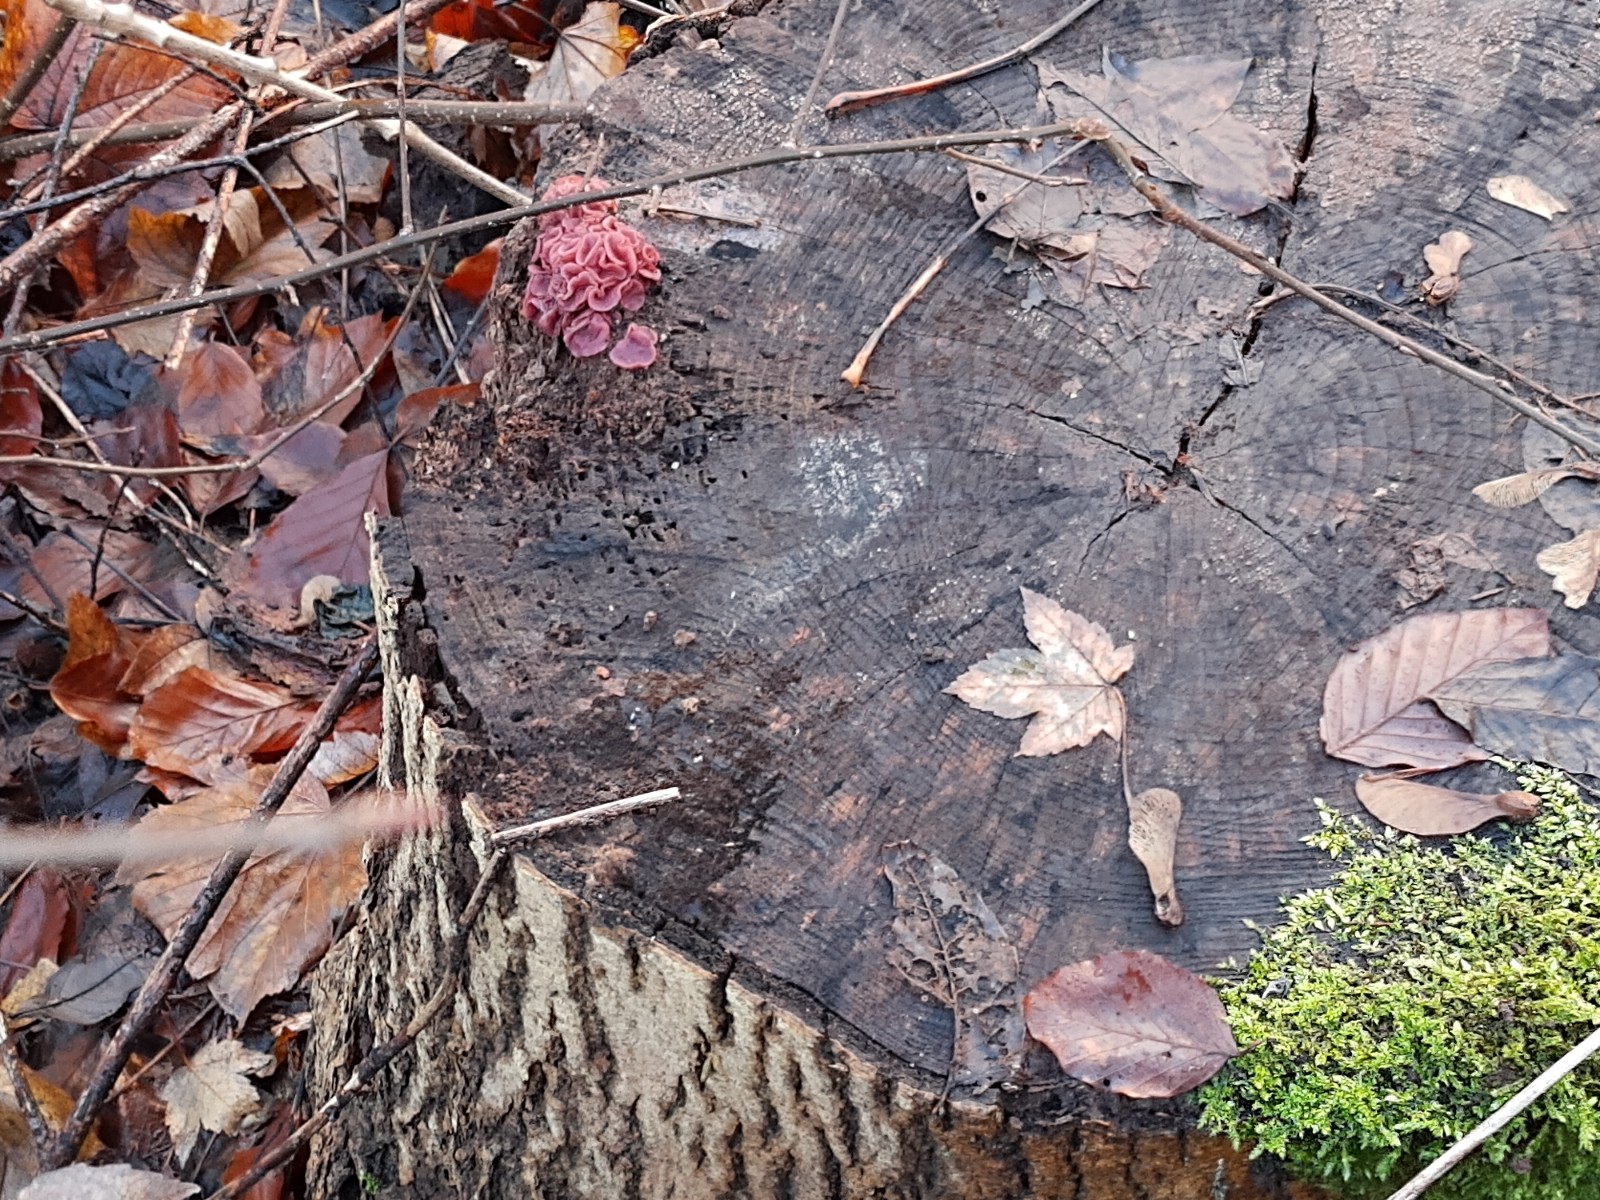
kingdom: Fungi
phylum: Ascomycota
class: Leotiomycetes
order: Helotiales
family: Gelatinodiscaceae
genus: Ascocoryne
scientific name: Ascocoryne cylichnium
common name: stor sejskive
